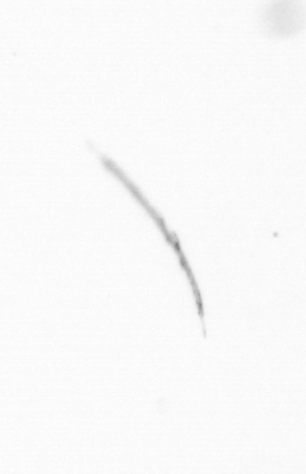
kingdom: Chromista
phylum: Ochrophyta
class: Bacillariophyceae
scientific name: Bacillariophyceae
